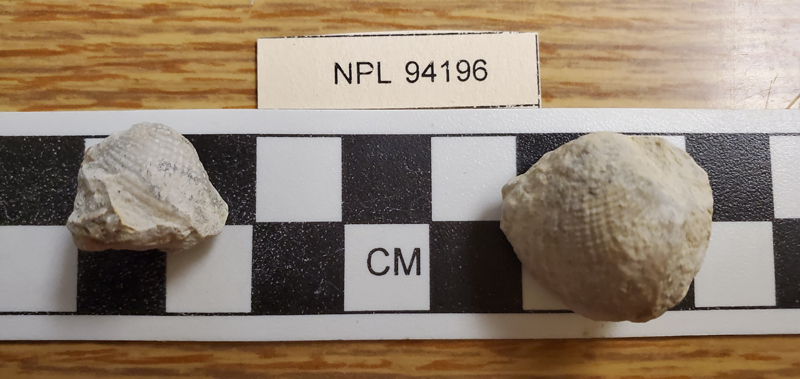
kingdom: Animalia
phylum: Mollusca
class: Bivalvia
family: Pholadomyidae
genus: Pholadomya
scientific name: Pholadomya
